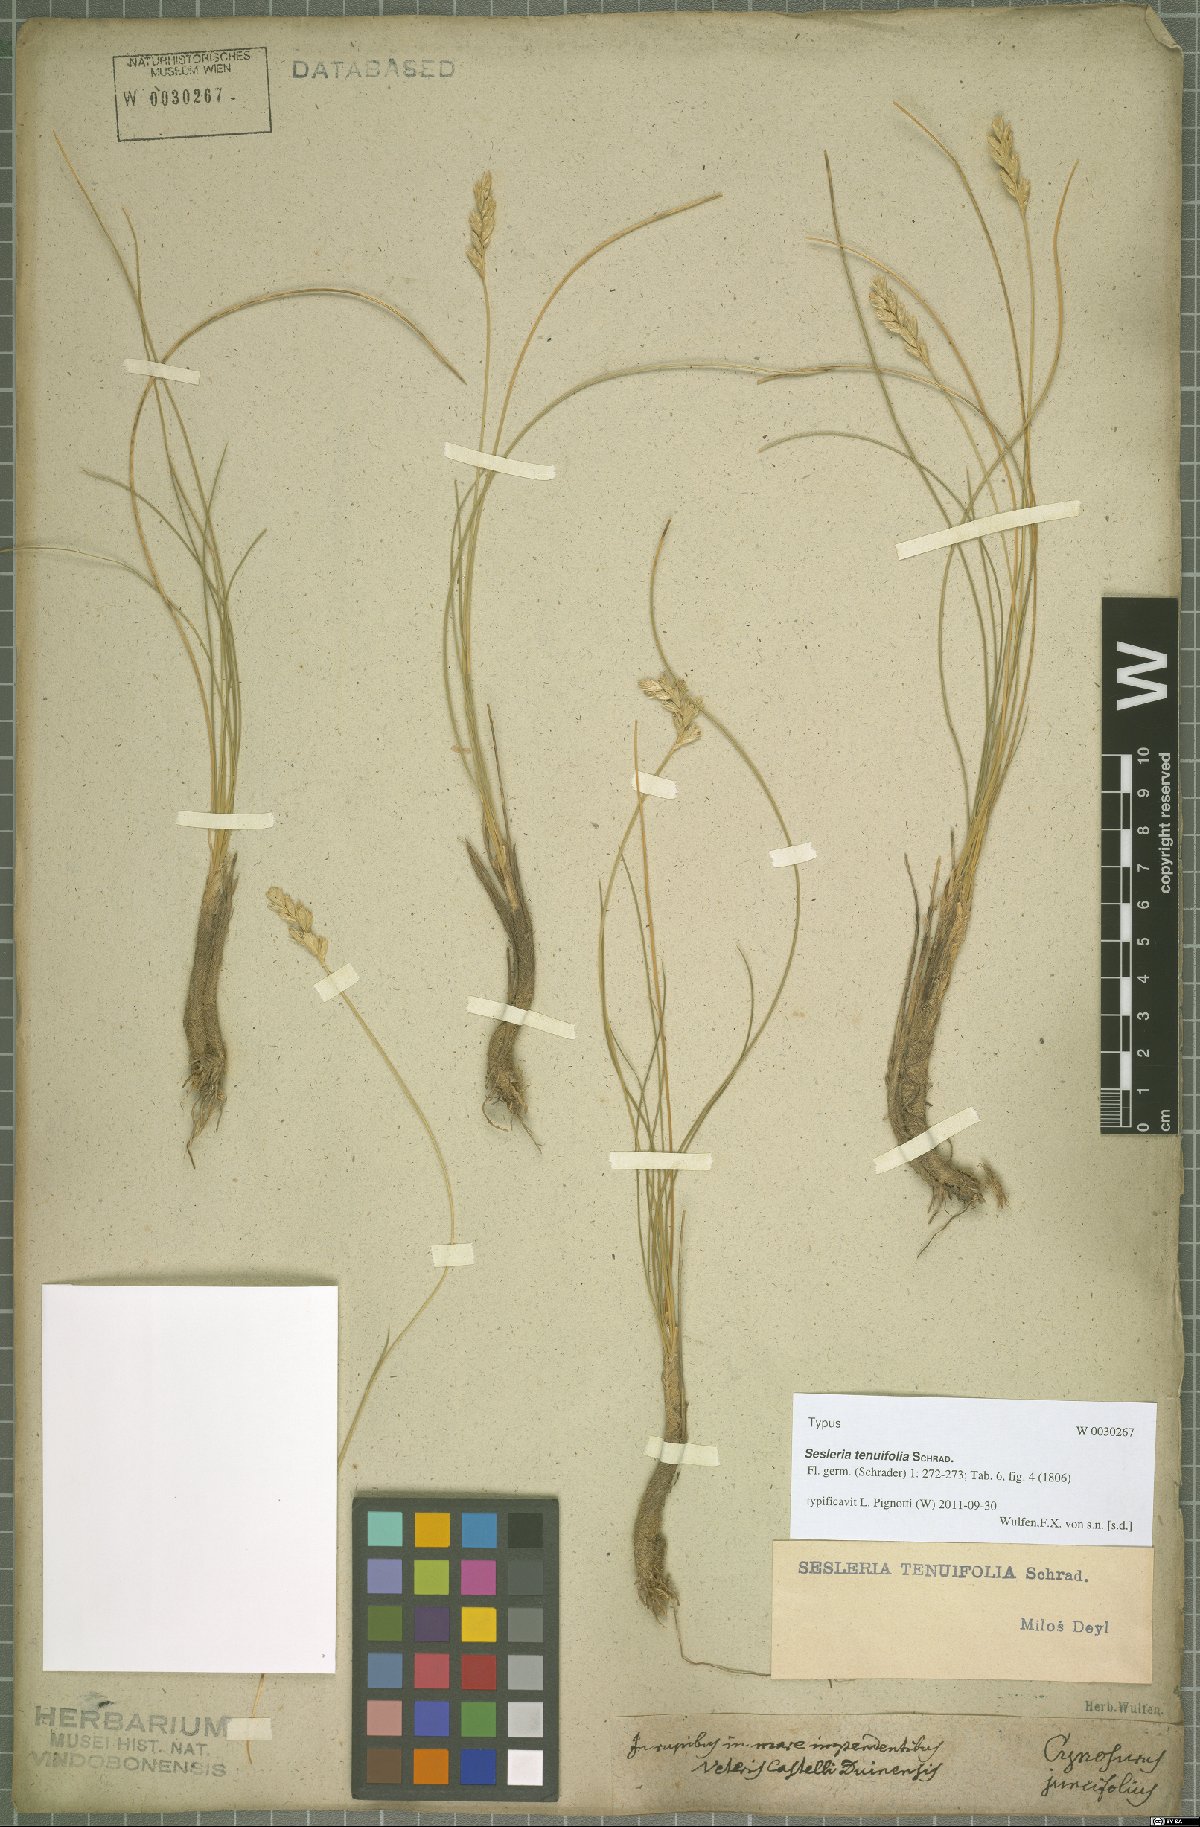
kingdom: Plantae
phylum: Tracheophyta
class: Liliopsida
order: Poales
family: Poaceae
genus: Sesleria
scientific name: Sesleria juncifolia
